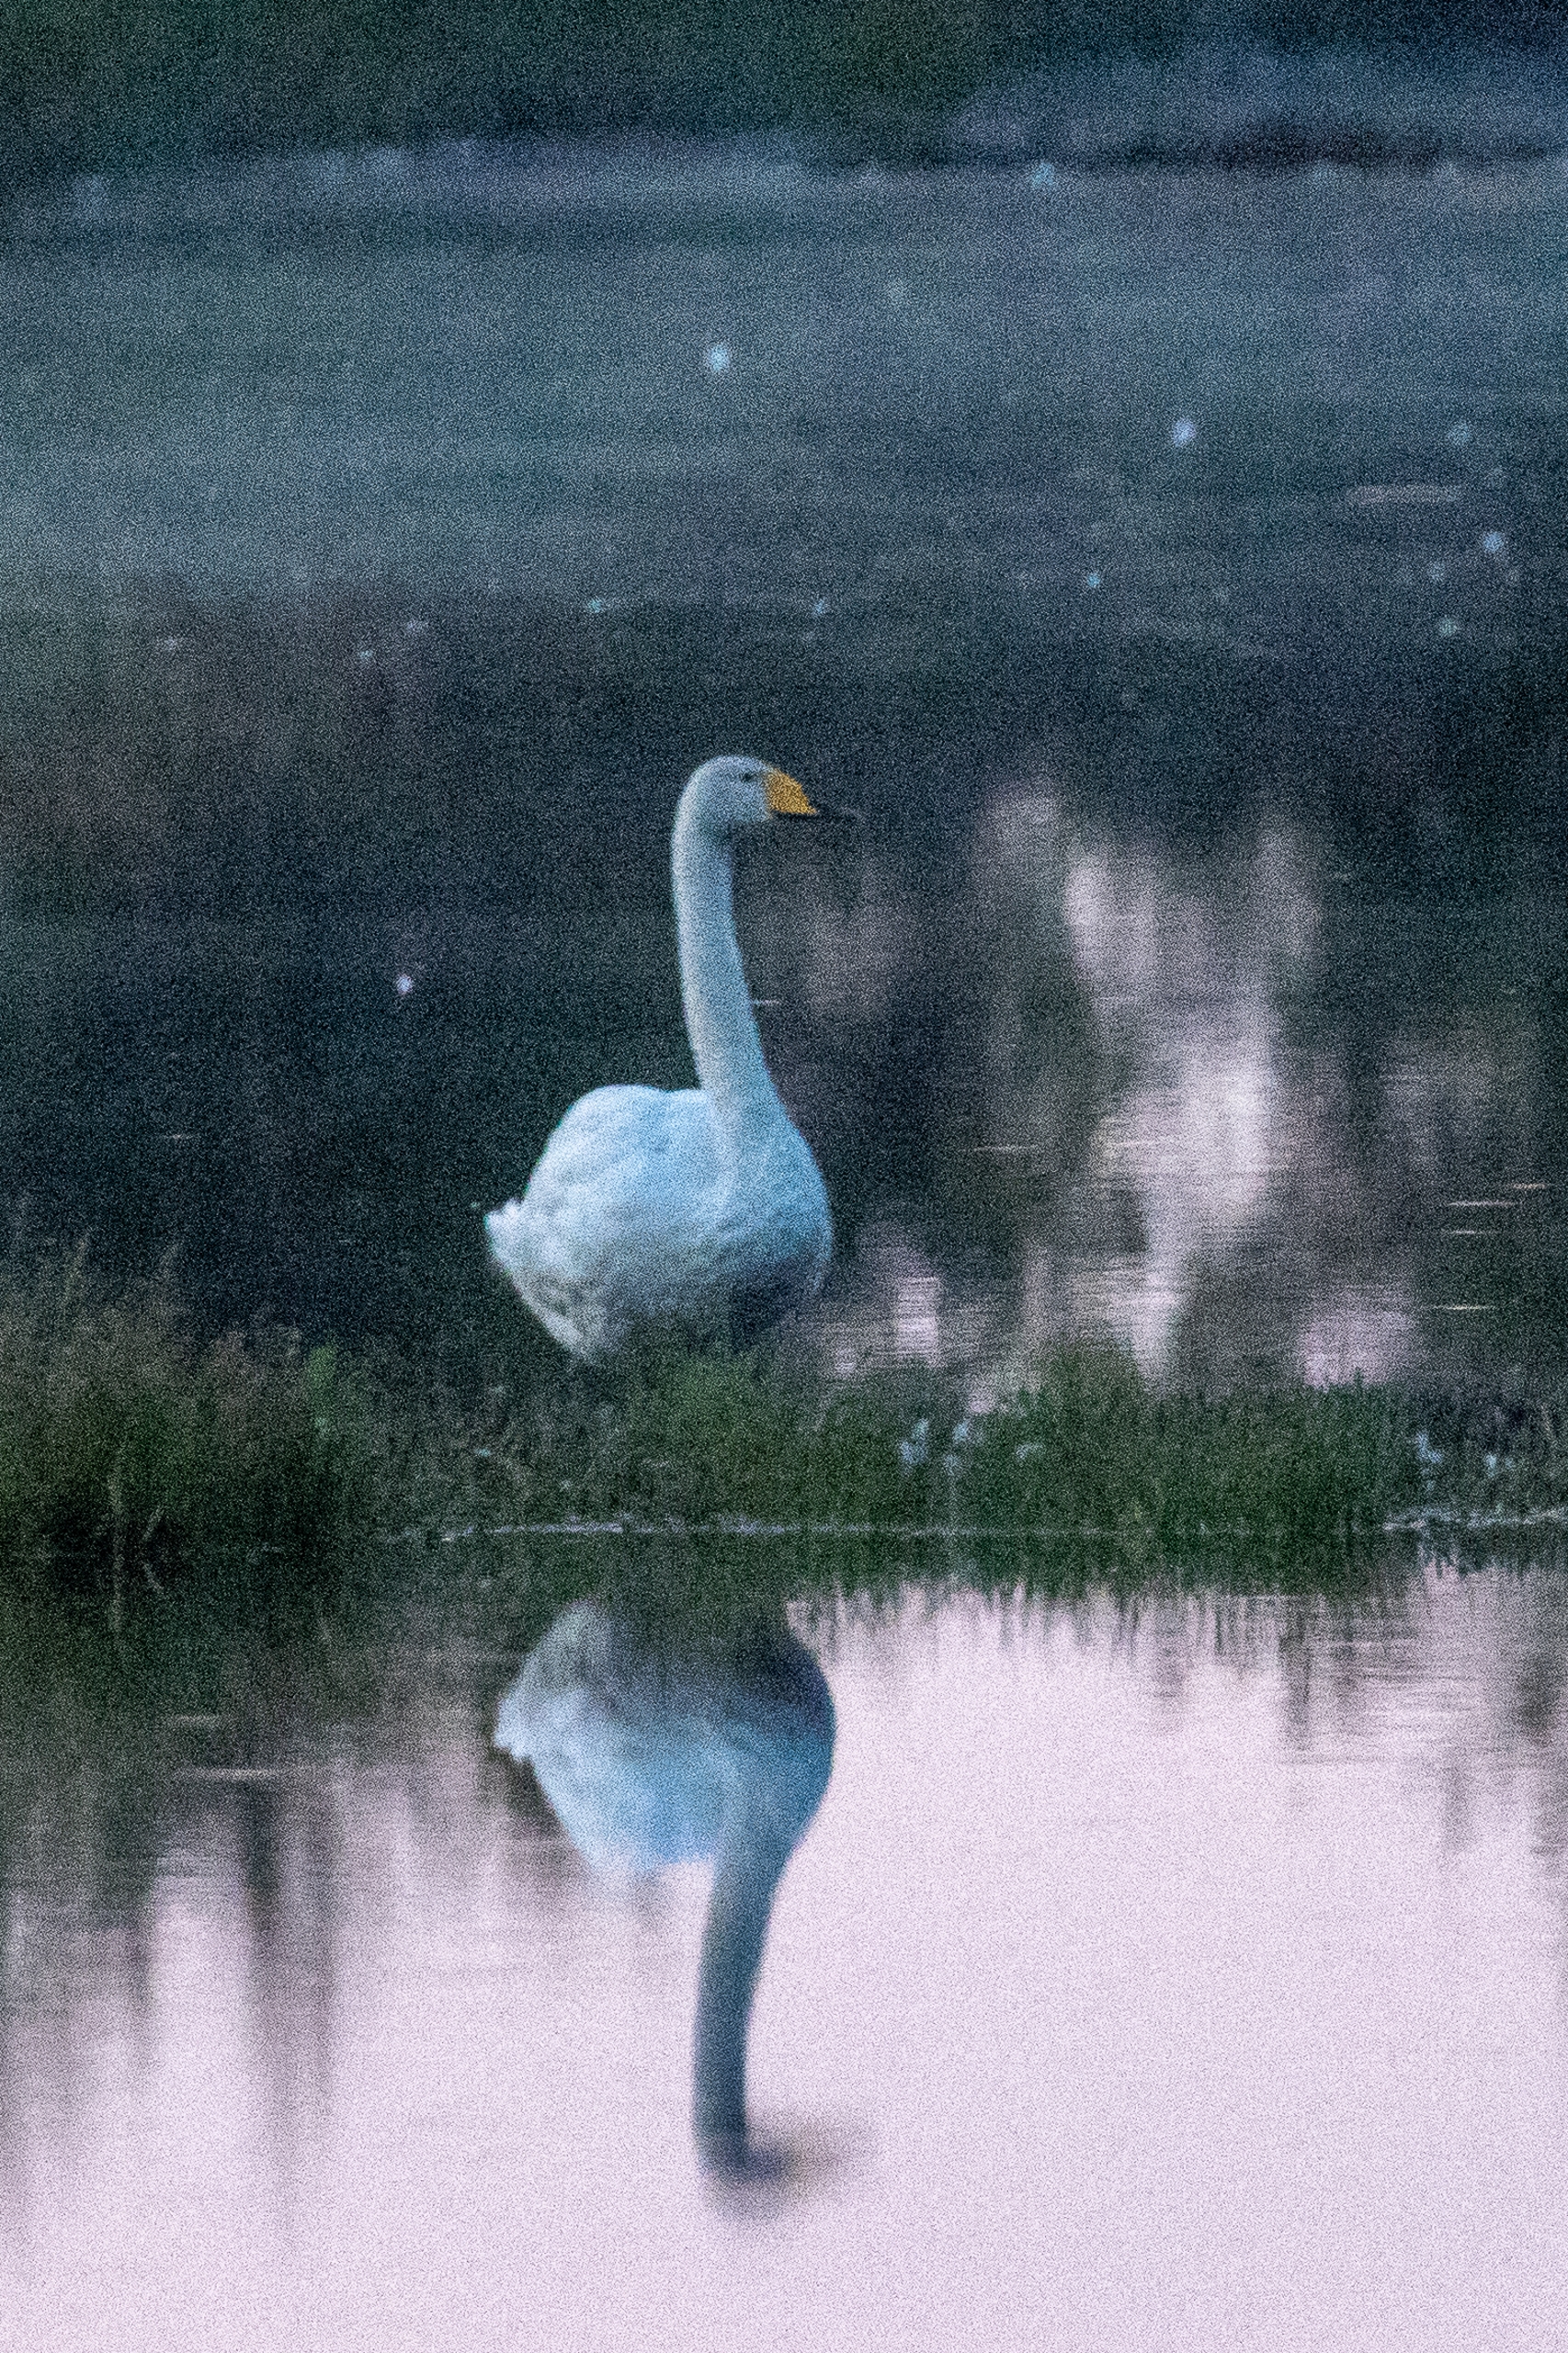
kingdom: Animalia
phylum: Chordata
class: Aves
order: Anseriformes
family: Anatidae
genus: Cygnus
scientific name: Cygnus cygnus
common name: Sangsvane
